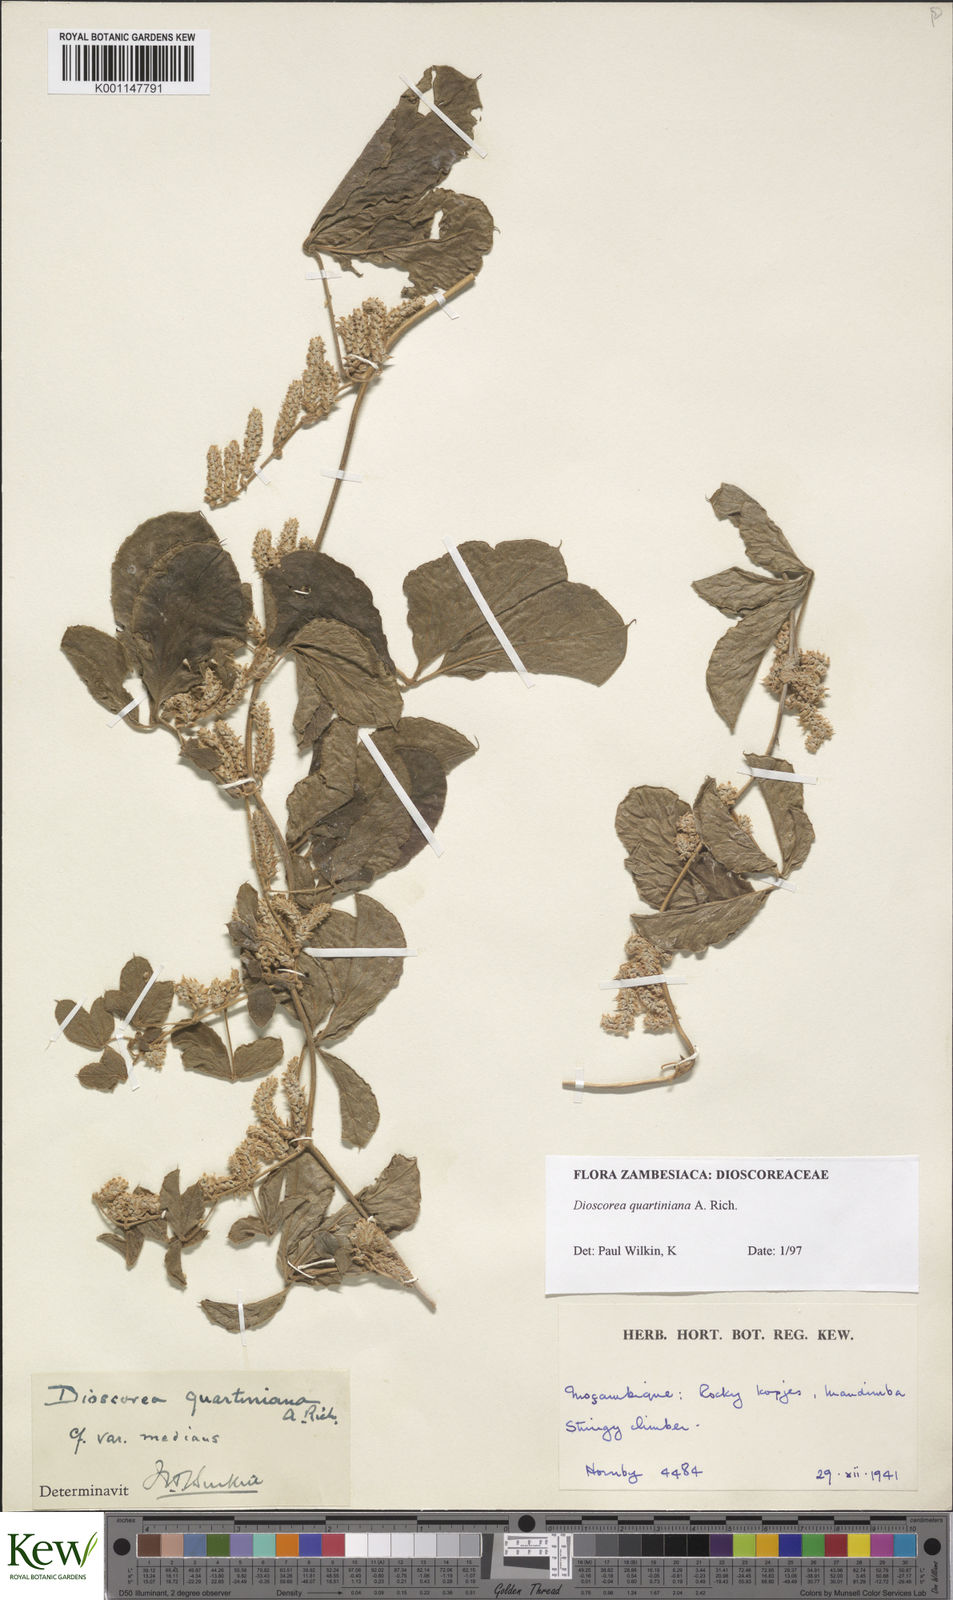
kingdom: Plantae
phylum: Tracheophyta
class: Liliopsida
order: Dioscoreales
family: Dioscoreaceae
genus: Dioscorea
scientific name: Dioscorea quartiniana
